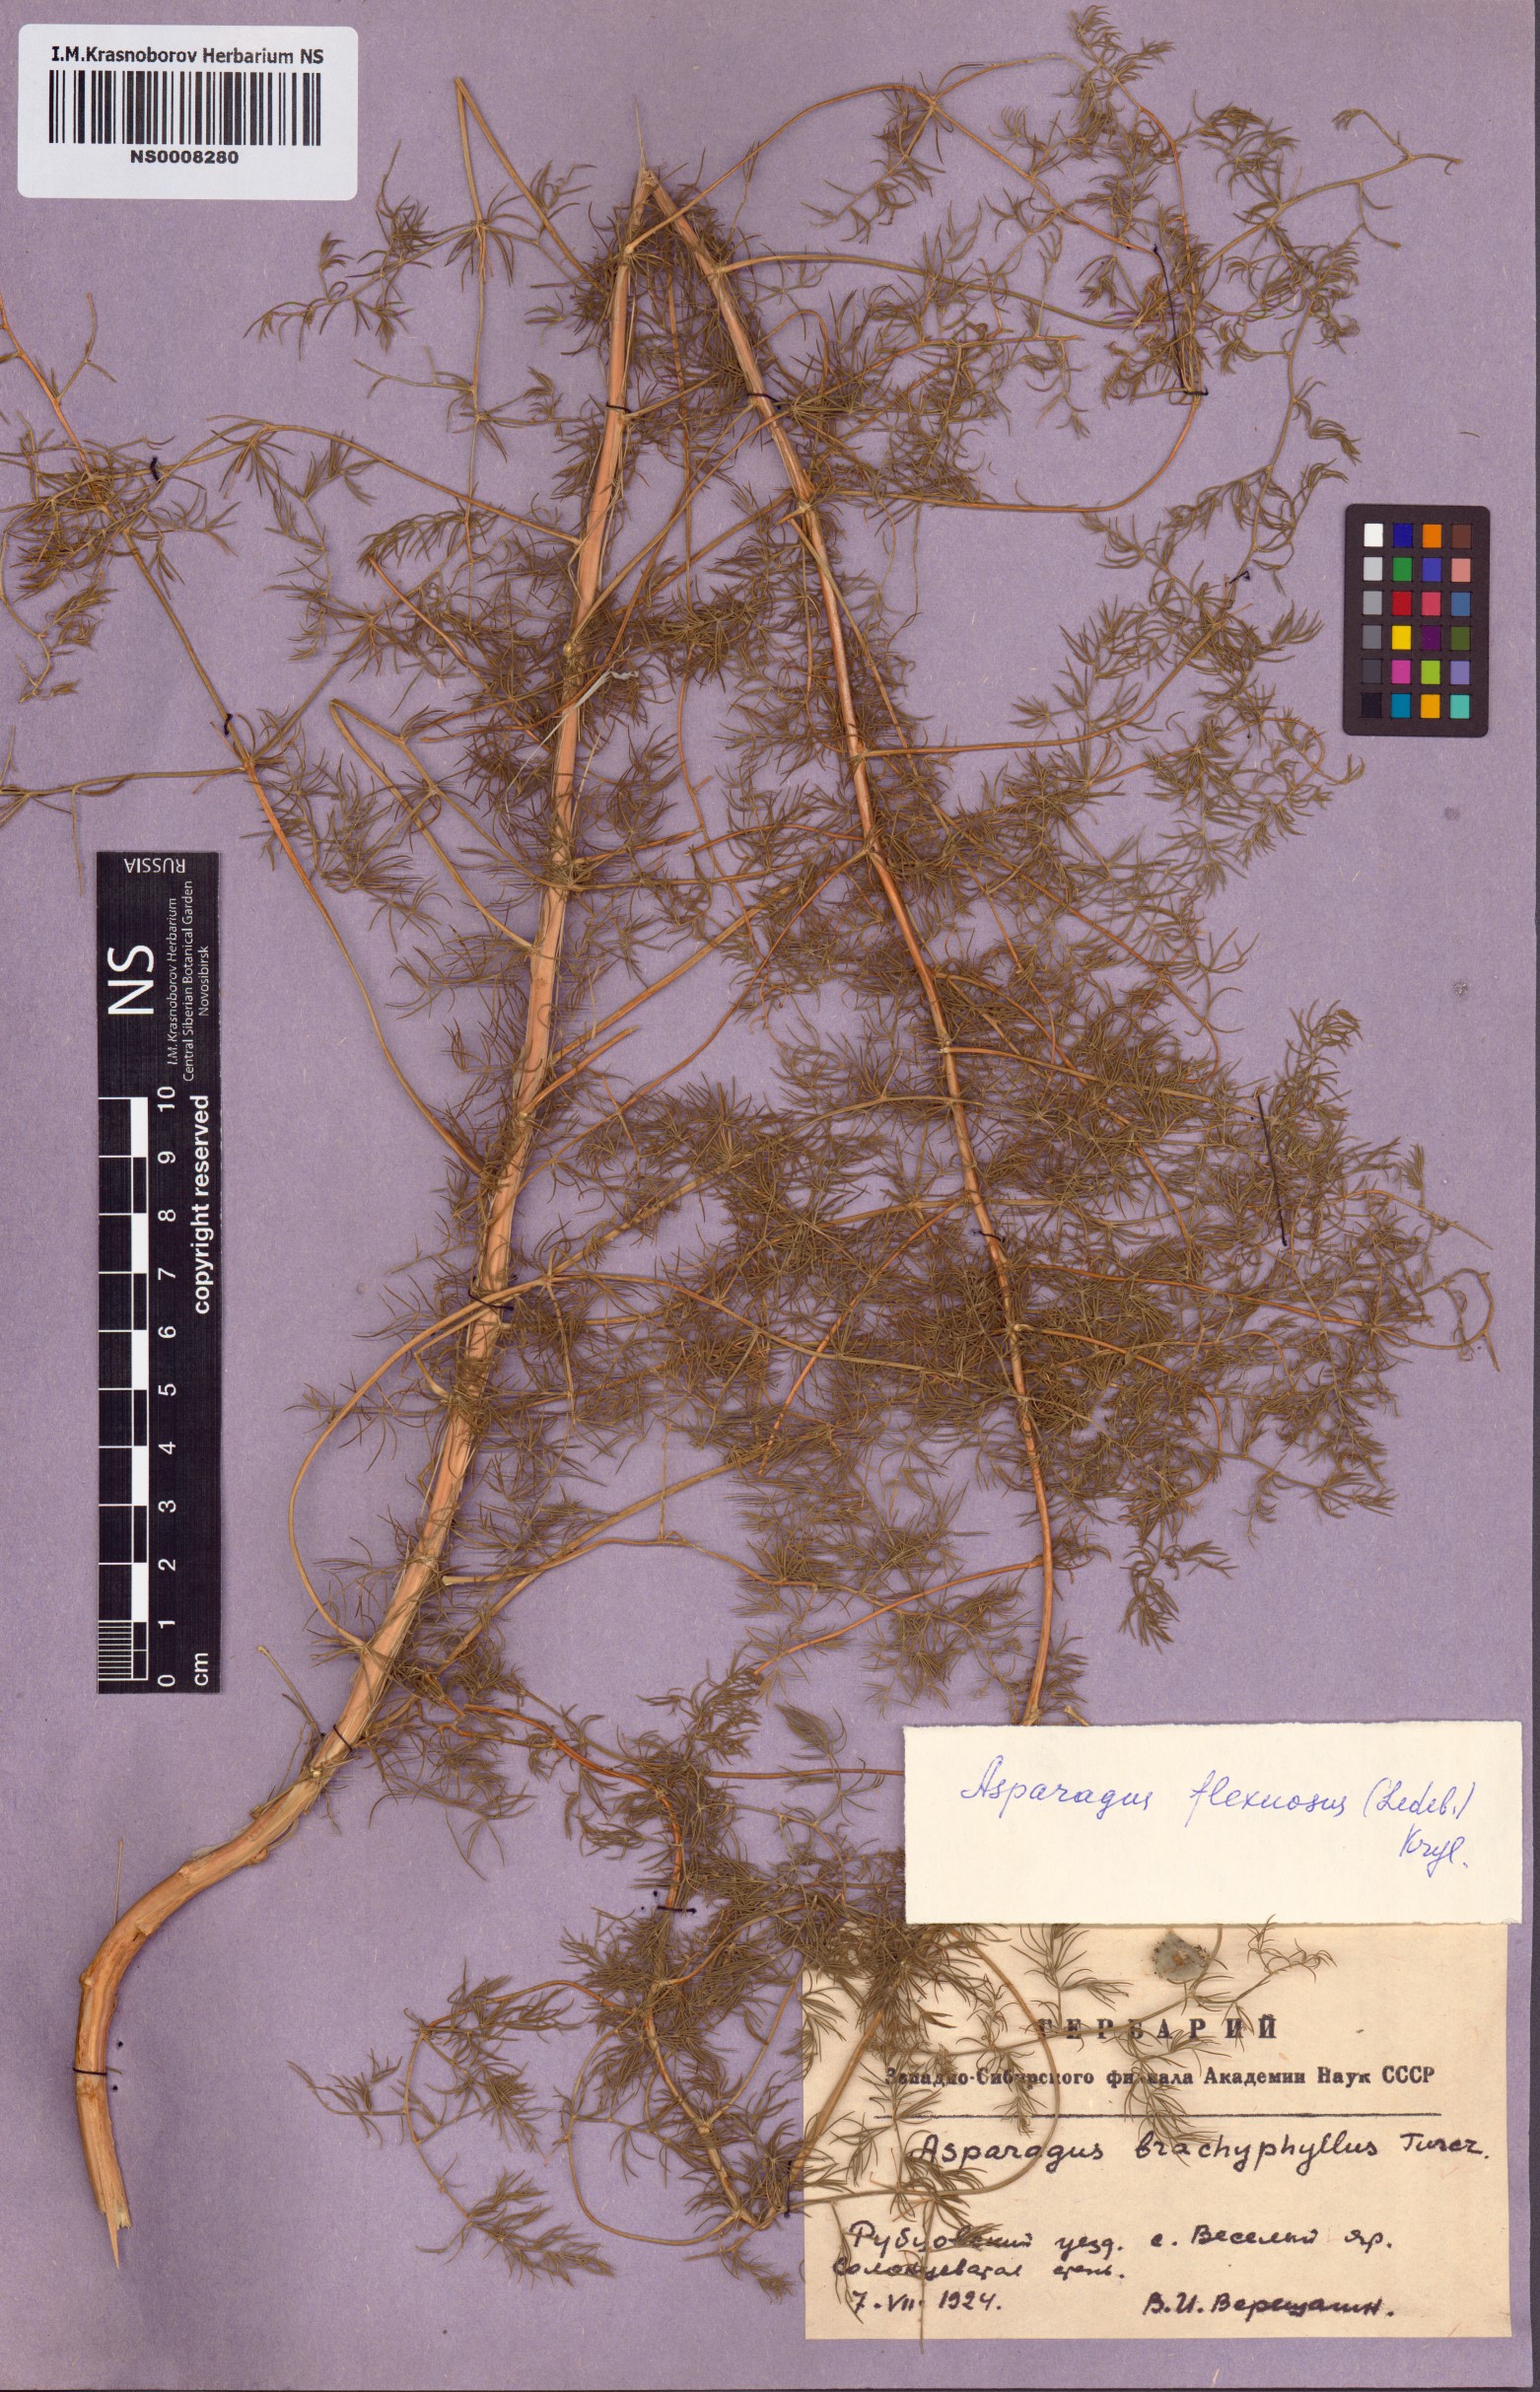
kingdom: Plantae
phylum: Tracheophyta
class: Liliopsida
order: Asparagales
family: Asparagaceae
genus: Asparagus
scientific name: Asparagus neglectus
